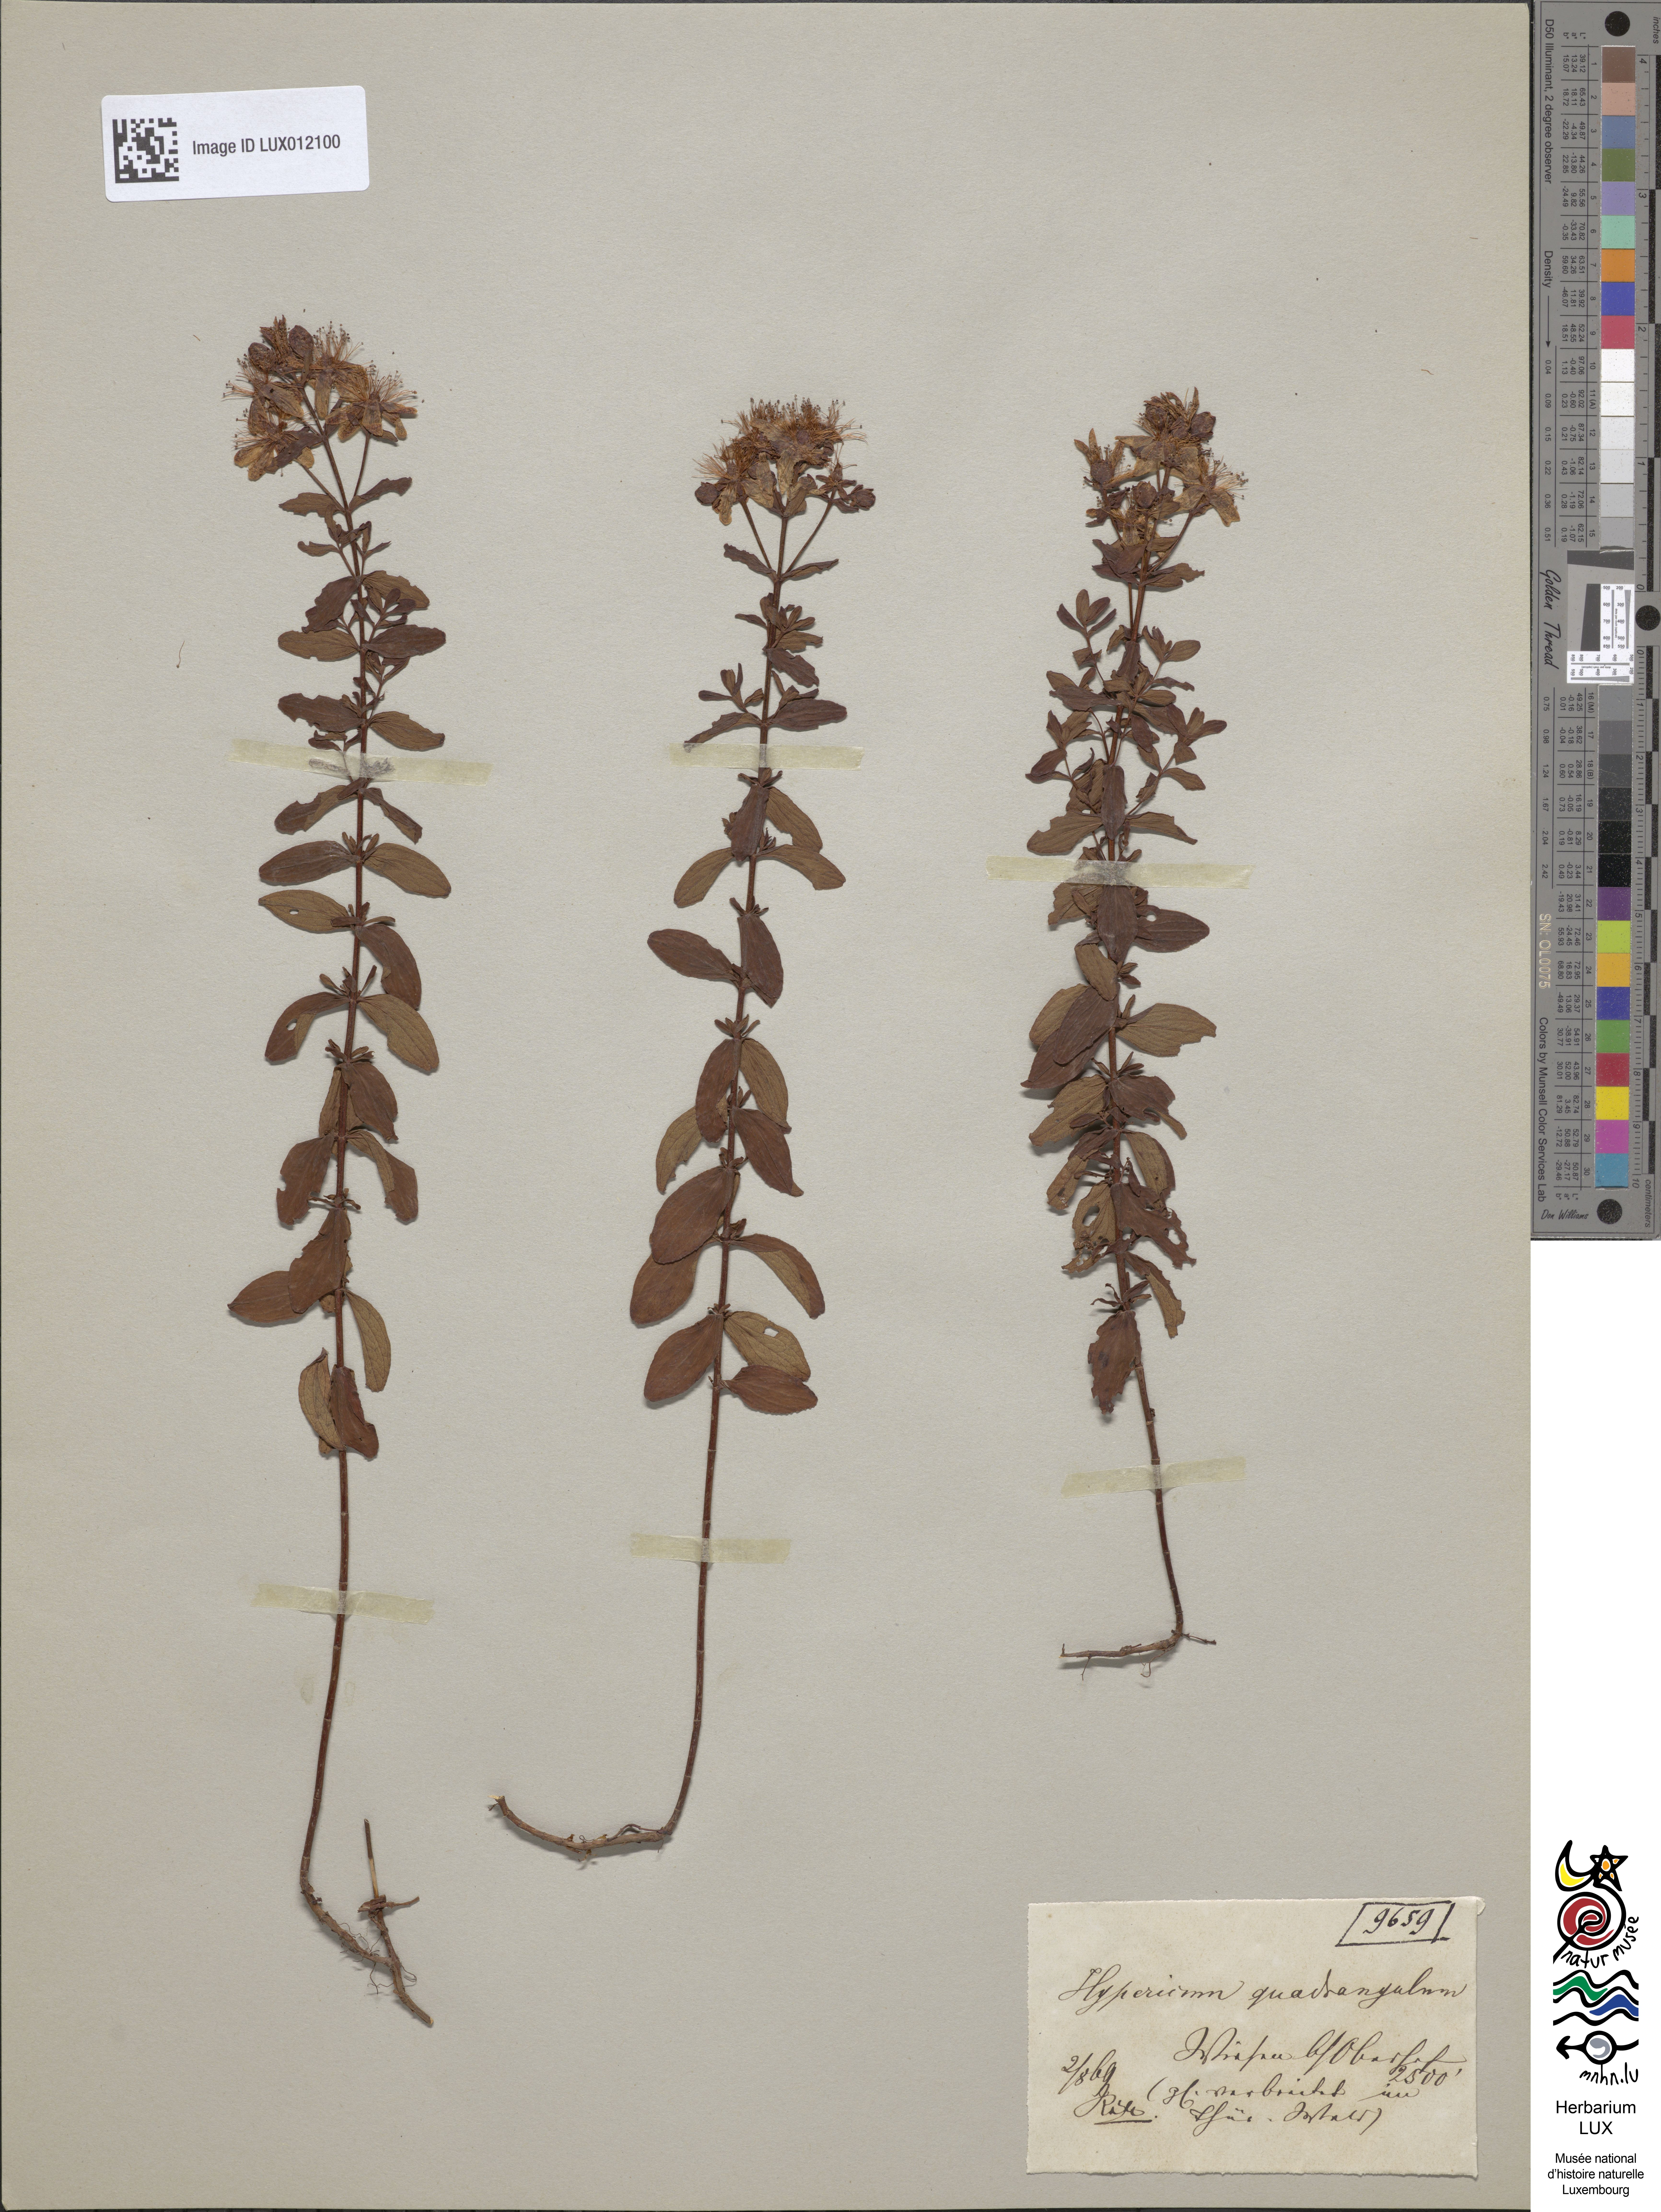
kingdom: Plantae
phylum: Tracheophyta
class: Magnoliopsida
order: Malpighiales
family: Hypericaceae
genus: Hypericum
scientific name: Hypericum tetrapterum
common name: Square-stalked st. john's-wort
